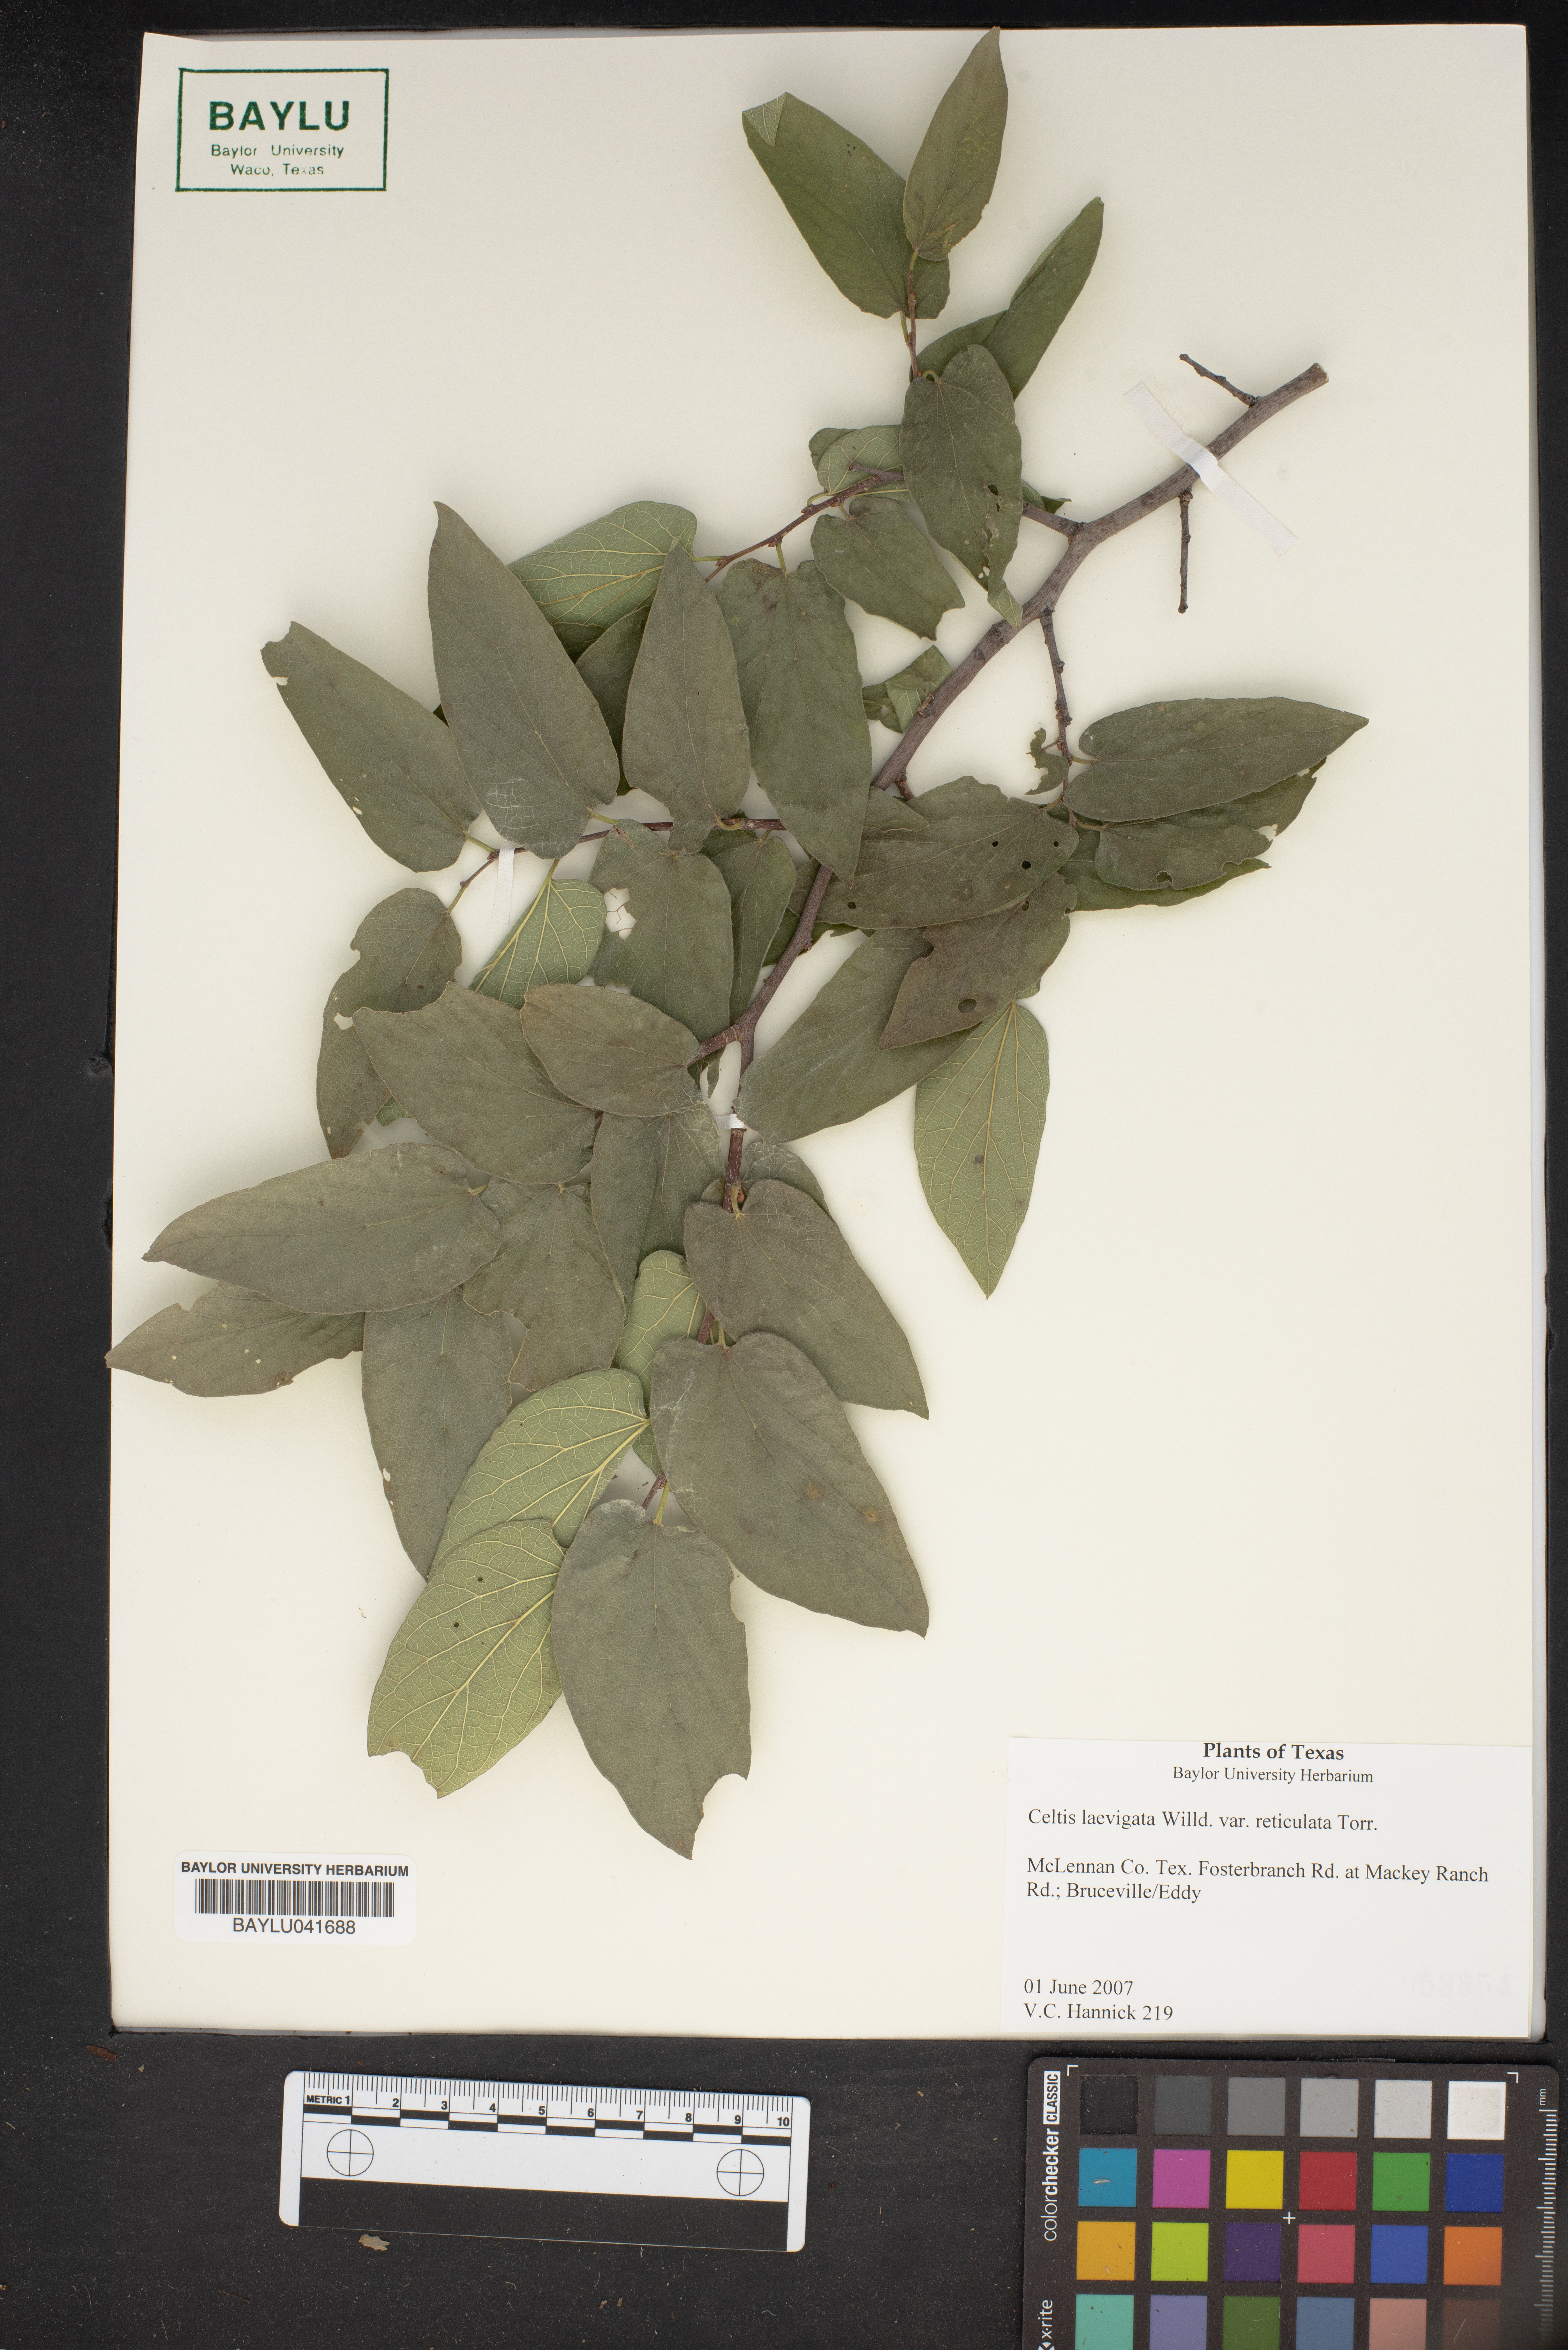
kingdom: Plantae
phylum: Tracheophyta
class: Magnoliopsida
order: Rosales
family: Cannabaceae
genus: Celtis
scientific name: Celtis reticulata
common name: Netleaf hackberry
